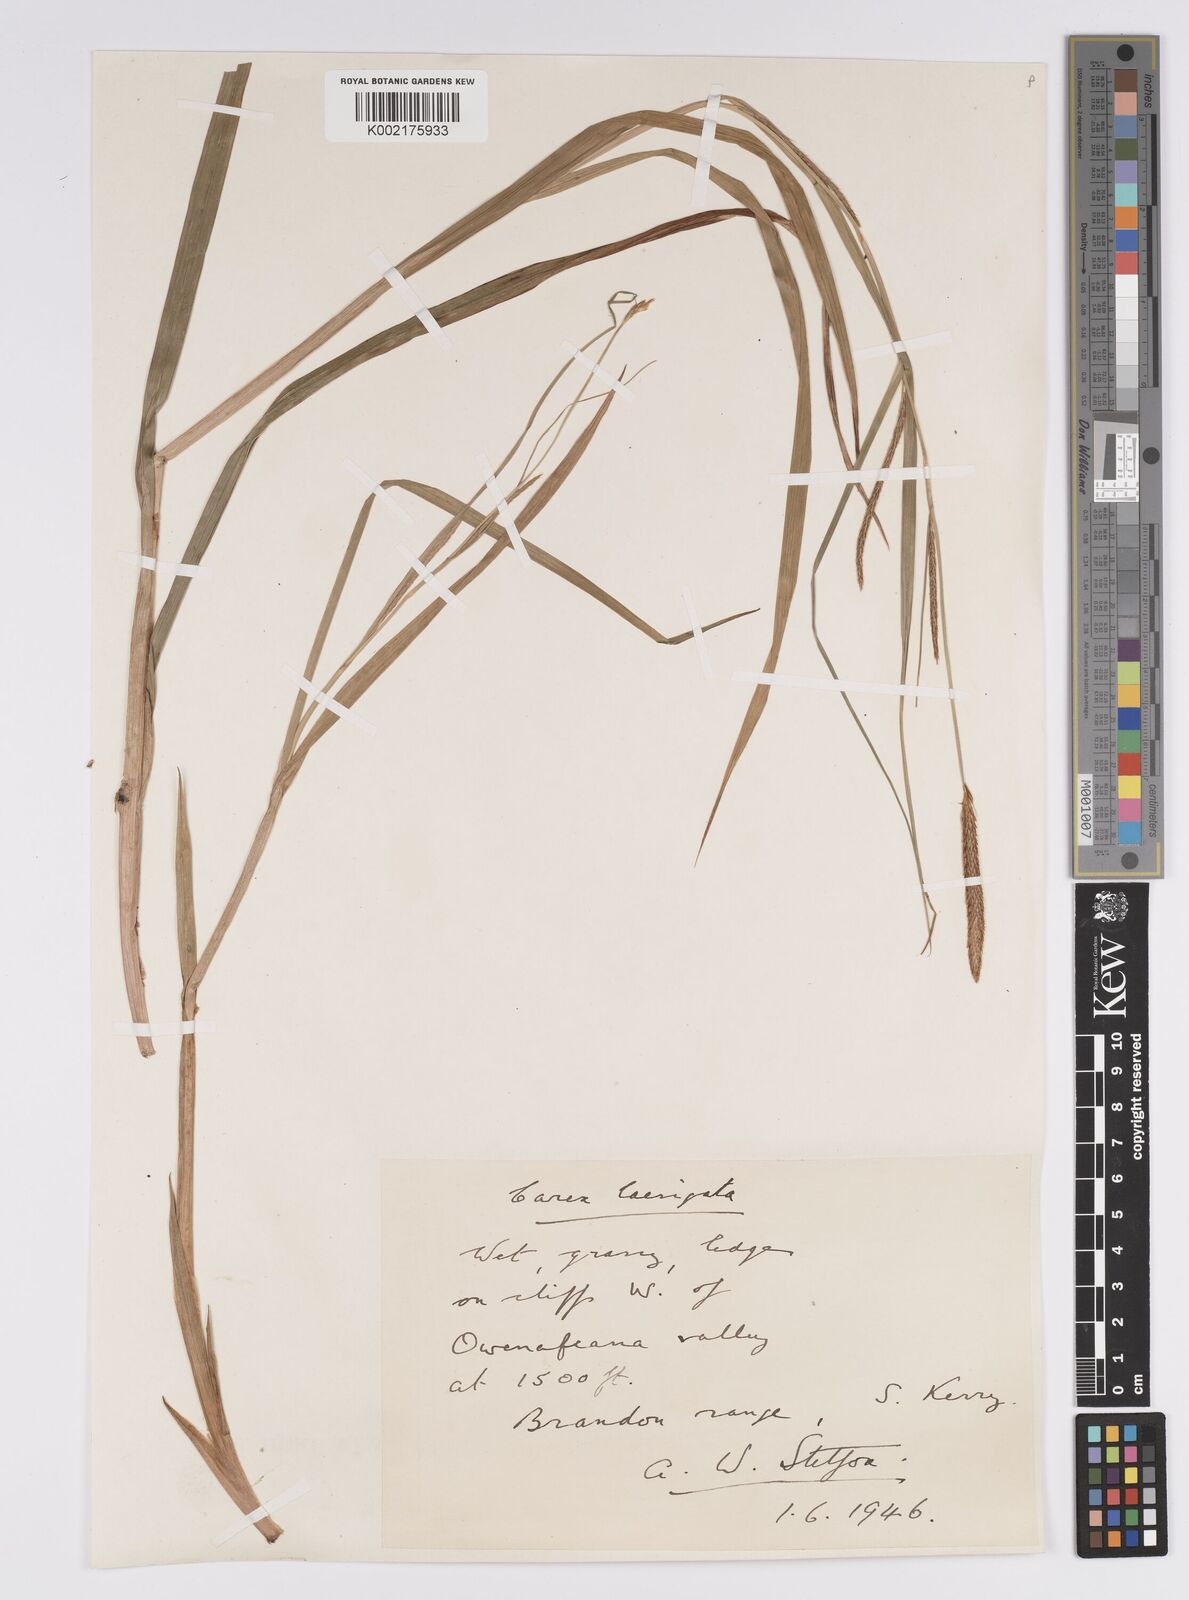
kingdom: Plantae
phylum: Tracheophyta
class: Liliopsida
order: Poales
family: Cyperaceae
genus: Carex
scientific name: Carex laevigata
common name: Smooth-stalked sedge
